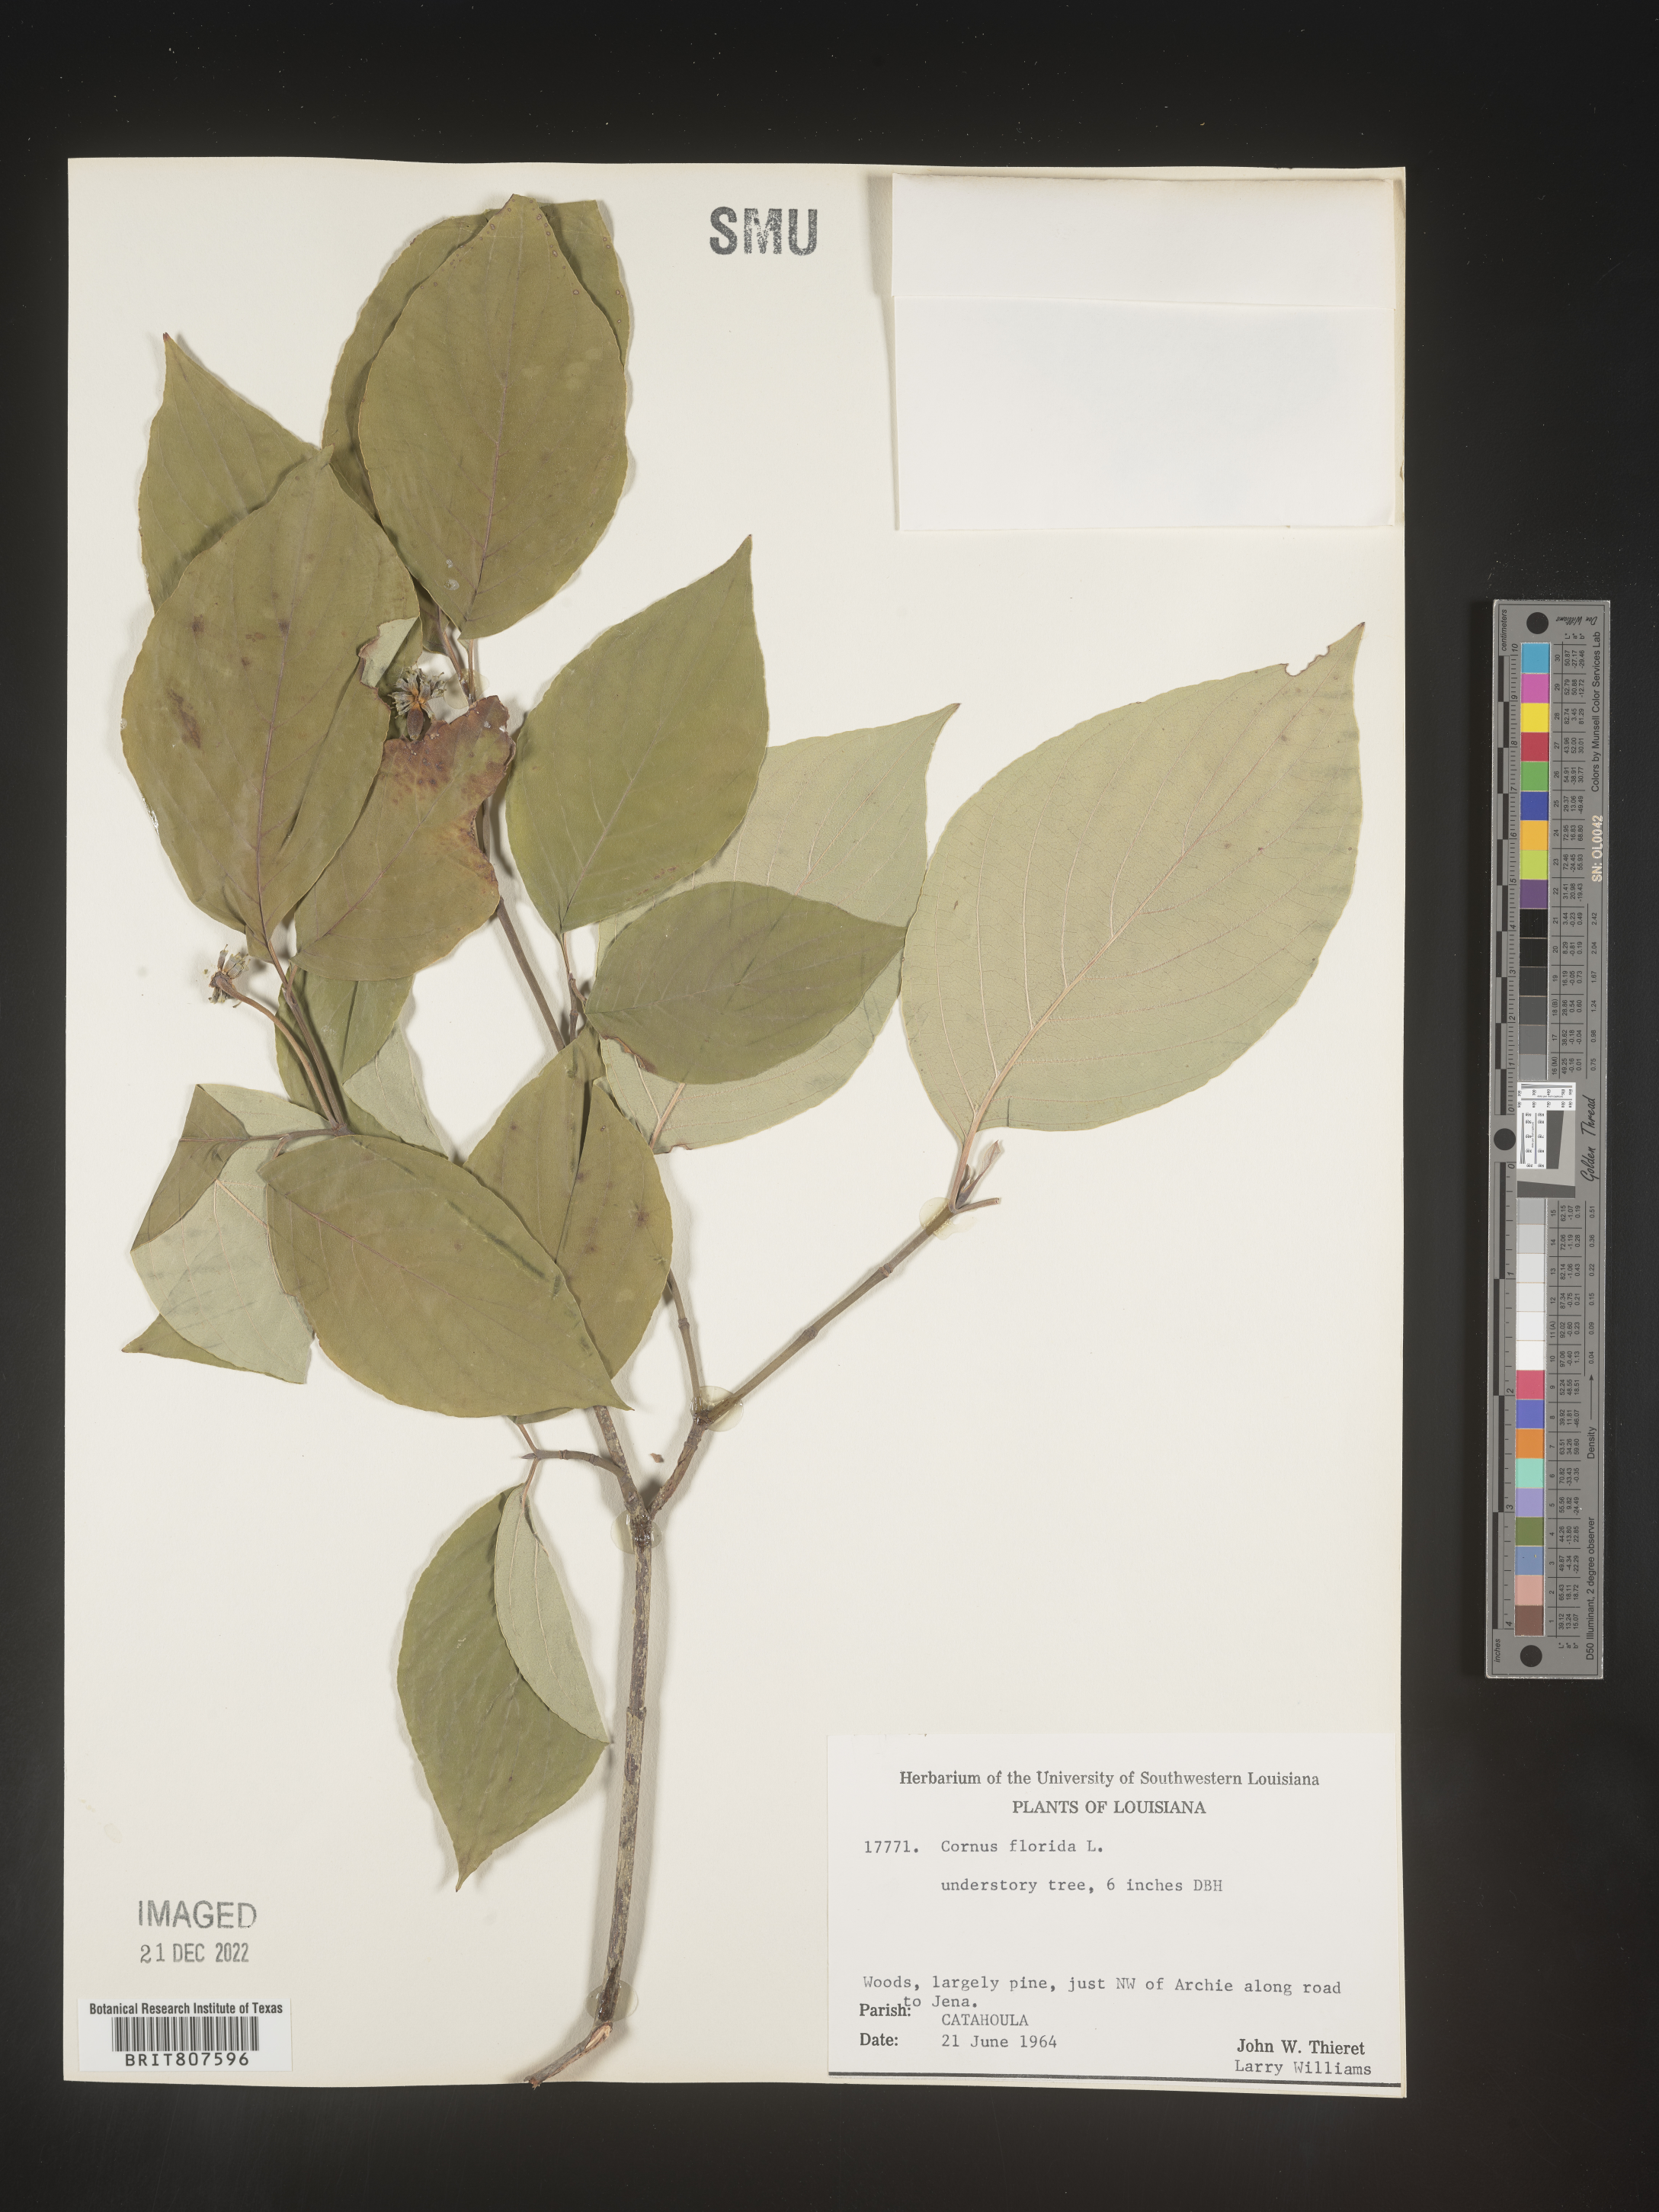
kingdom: Plantae
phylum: Tracheophyta
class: Magnoliopsida
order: Cornales
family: Cornaceae
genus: Cornus
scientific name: Cornus florida
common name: Flowering dogwood
